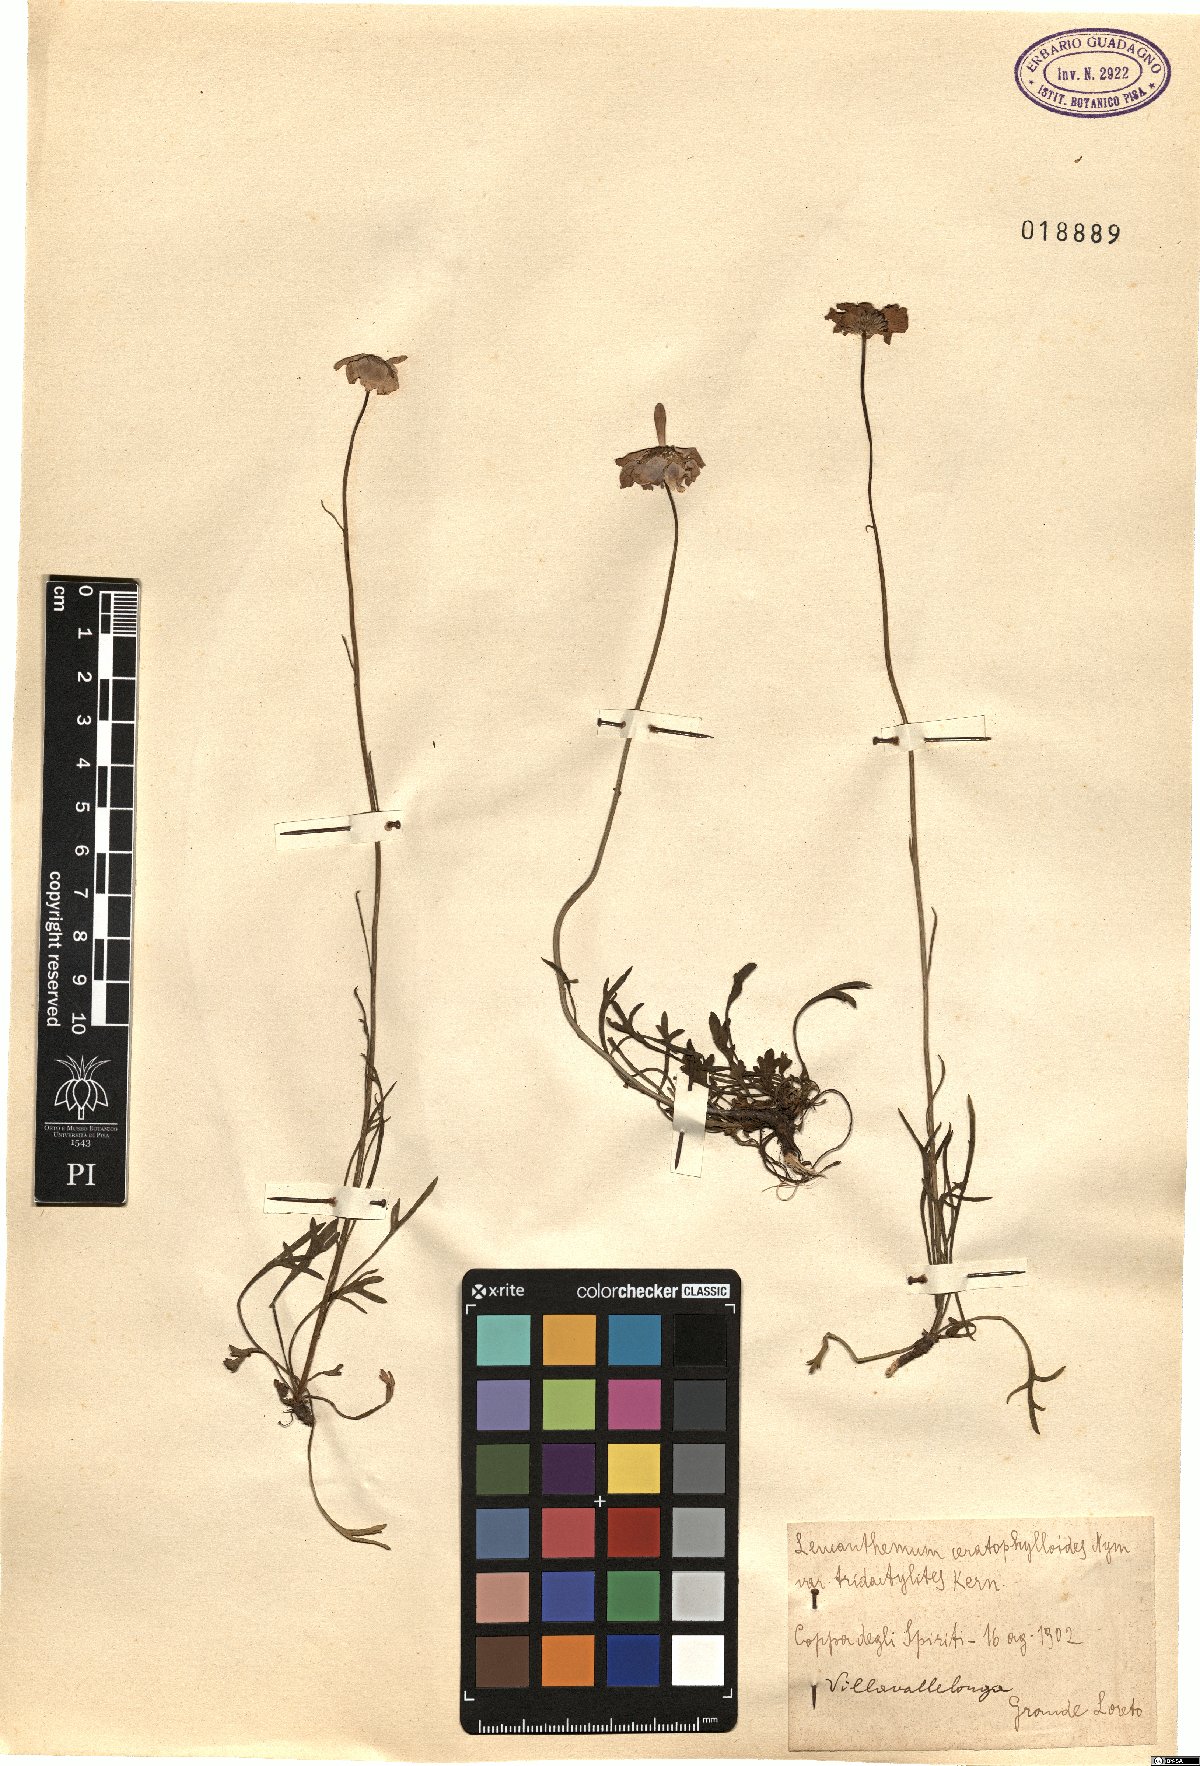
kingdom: Plantae
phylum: Tracheophyta
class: Magnoliopsida
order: Asterales
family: Asteraceae
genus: Leucanthemum
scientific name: Leucanthemum coronopifolium
